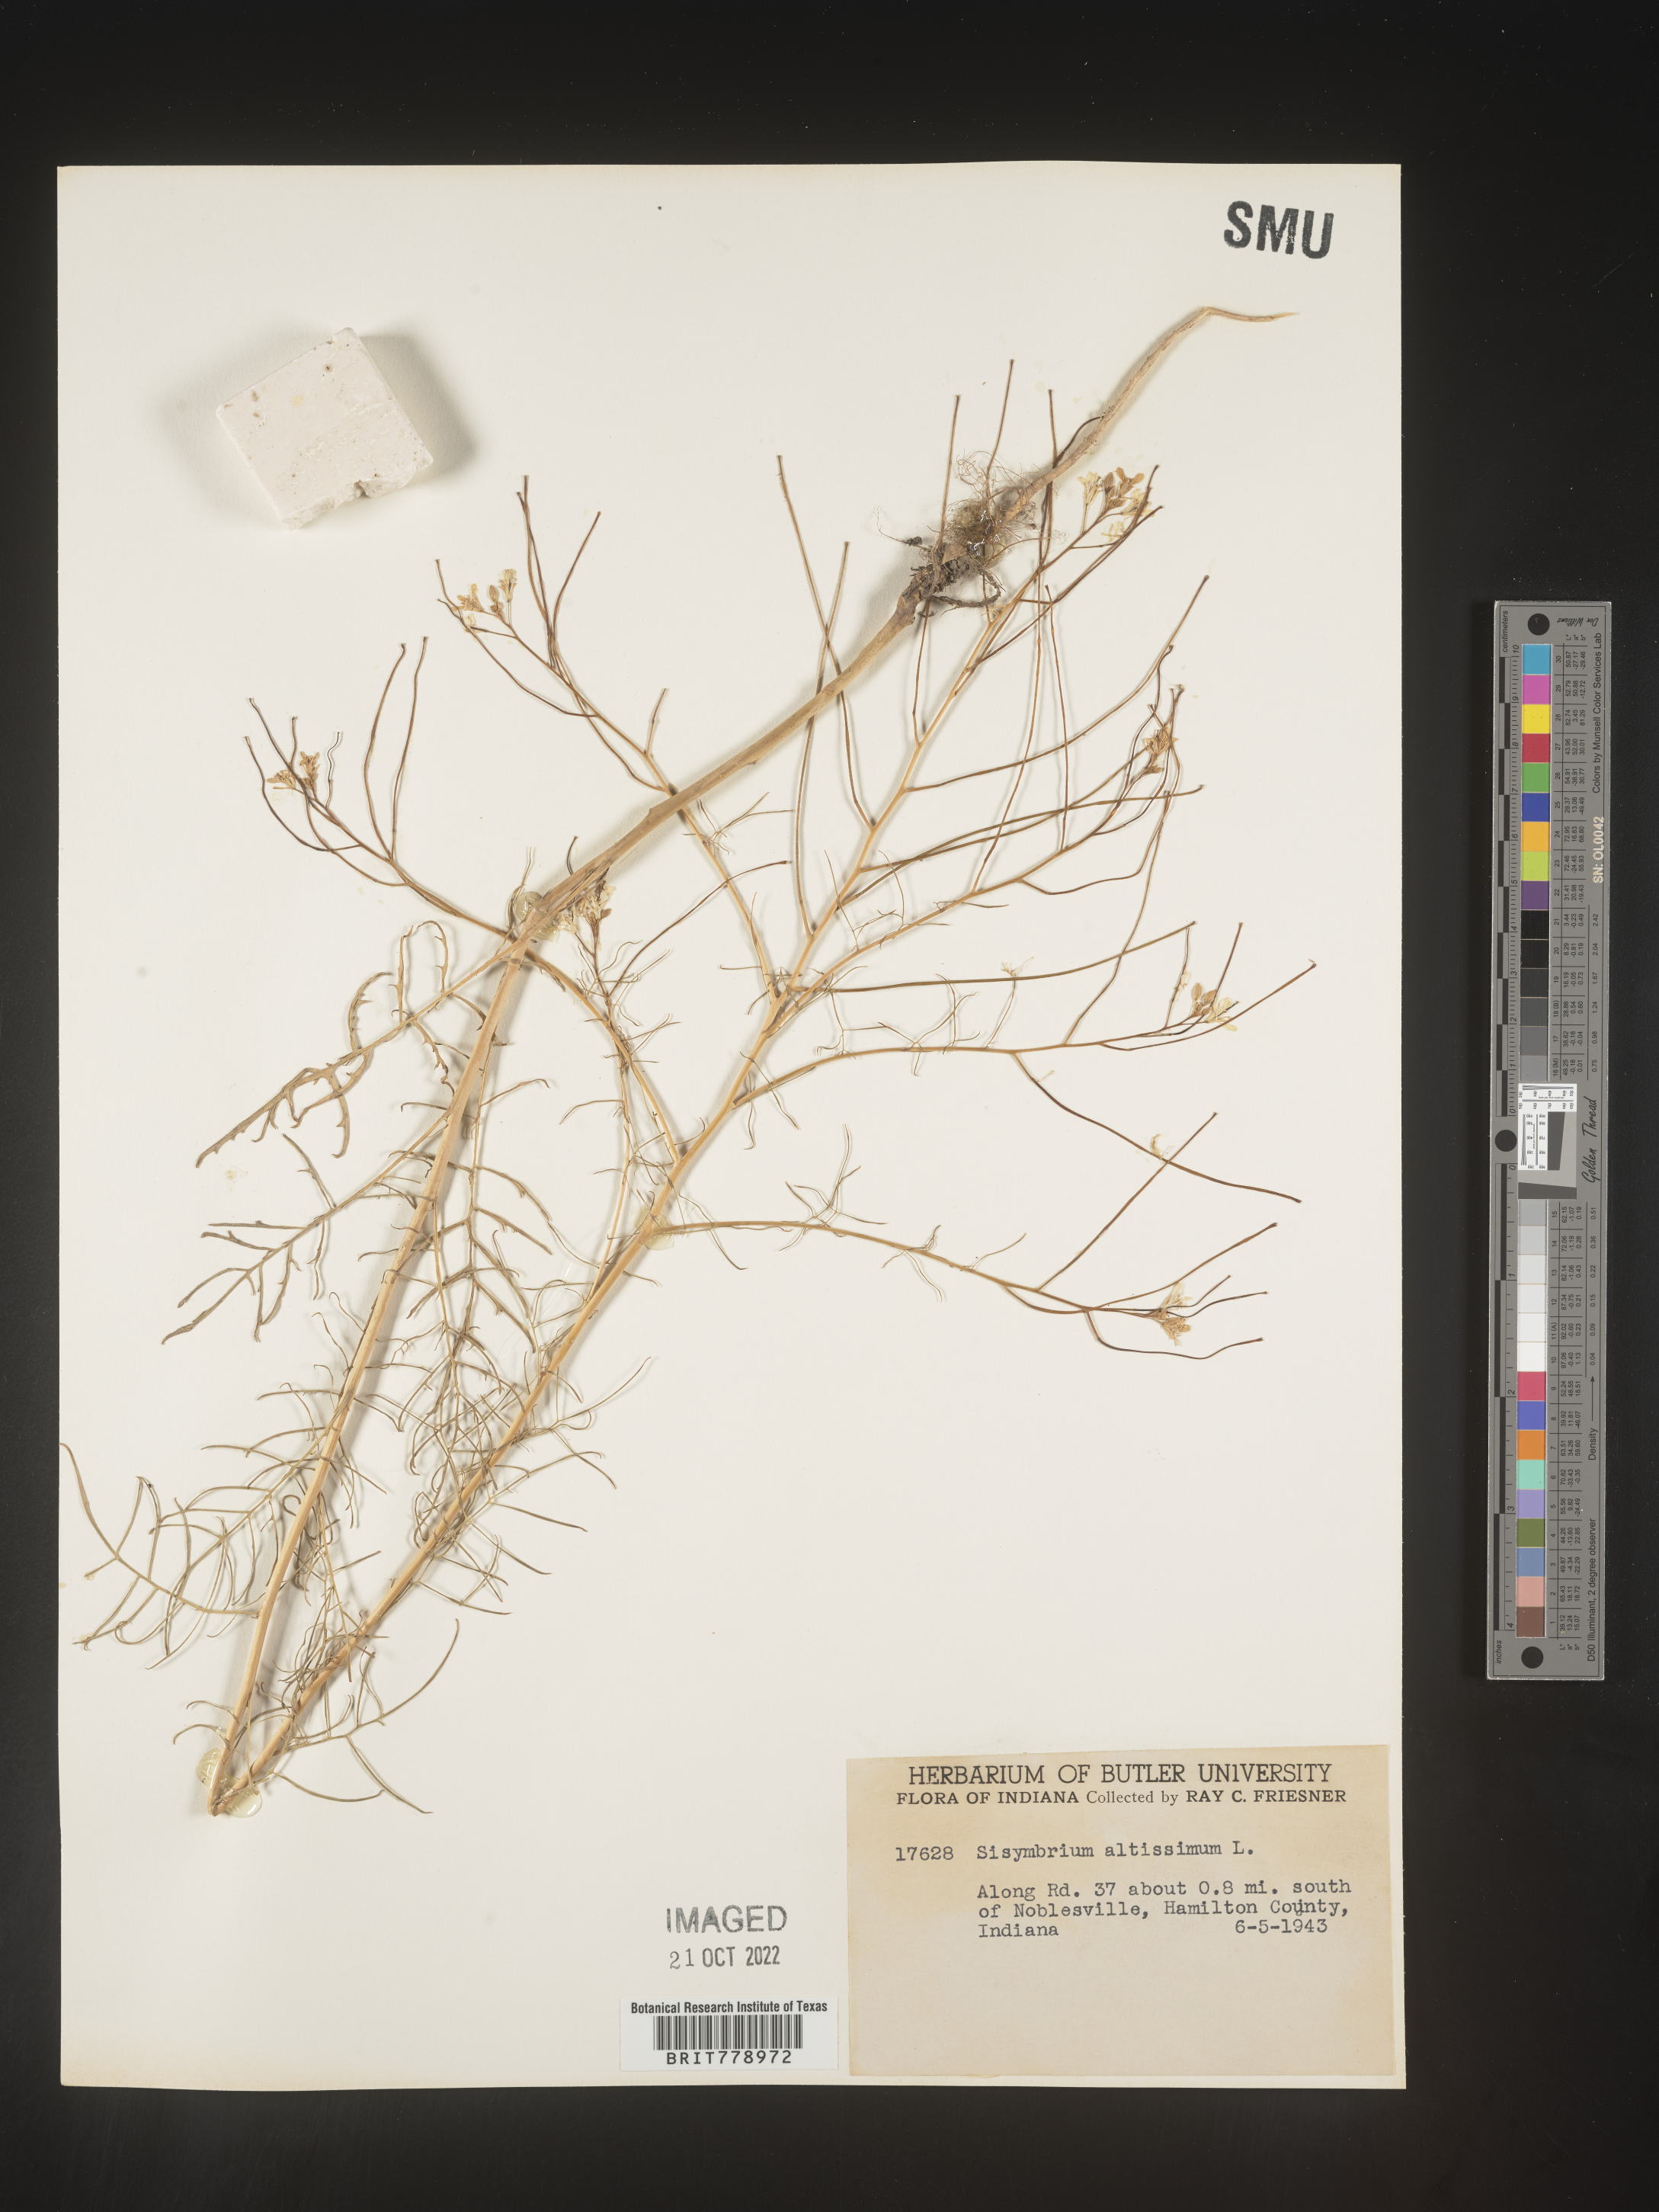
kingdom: Plantae
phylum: Tracheophyta
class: Magnoliopsida
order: Brassicales
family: Brassicaceae
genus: Sisymbrium
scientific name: Sisymbrium altissimum
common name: Tall rocket
